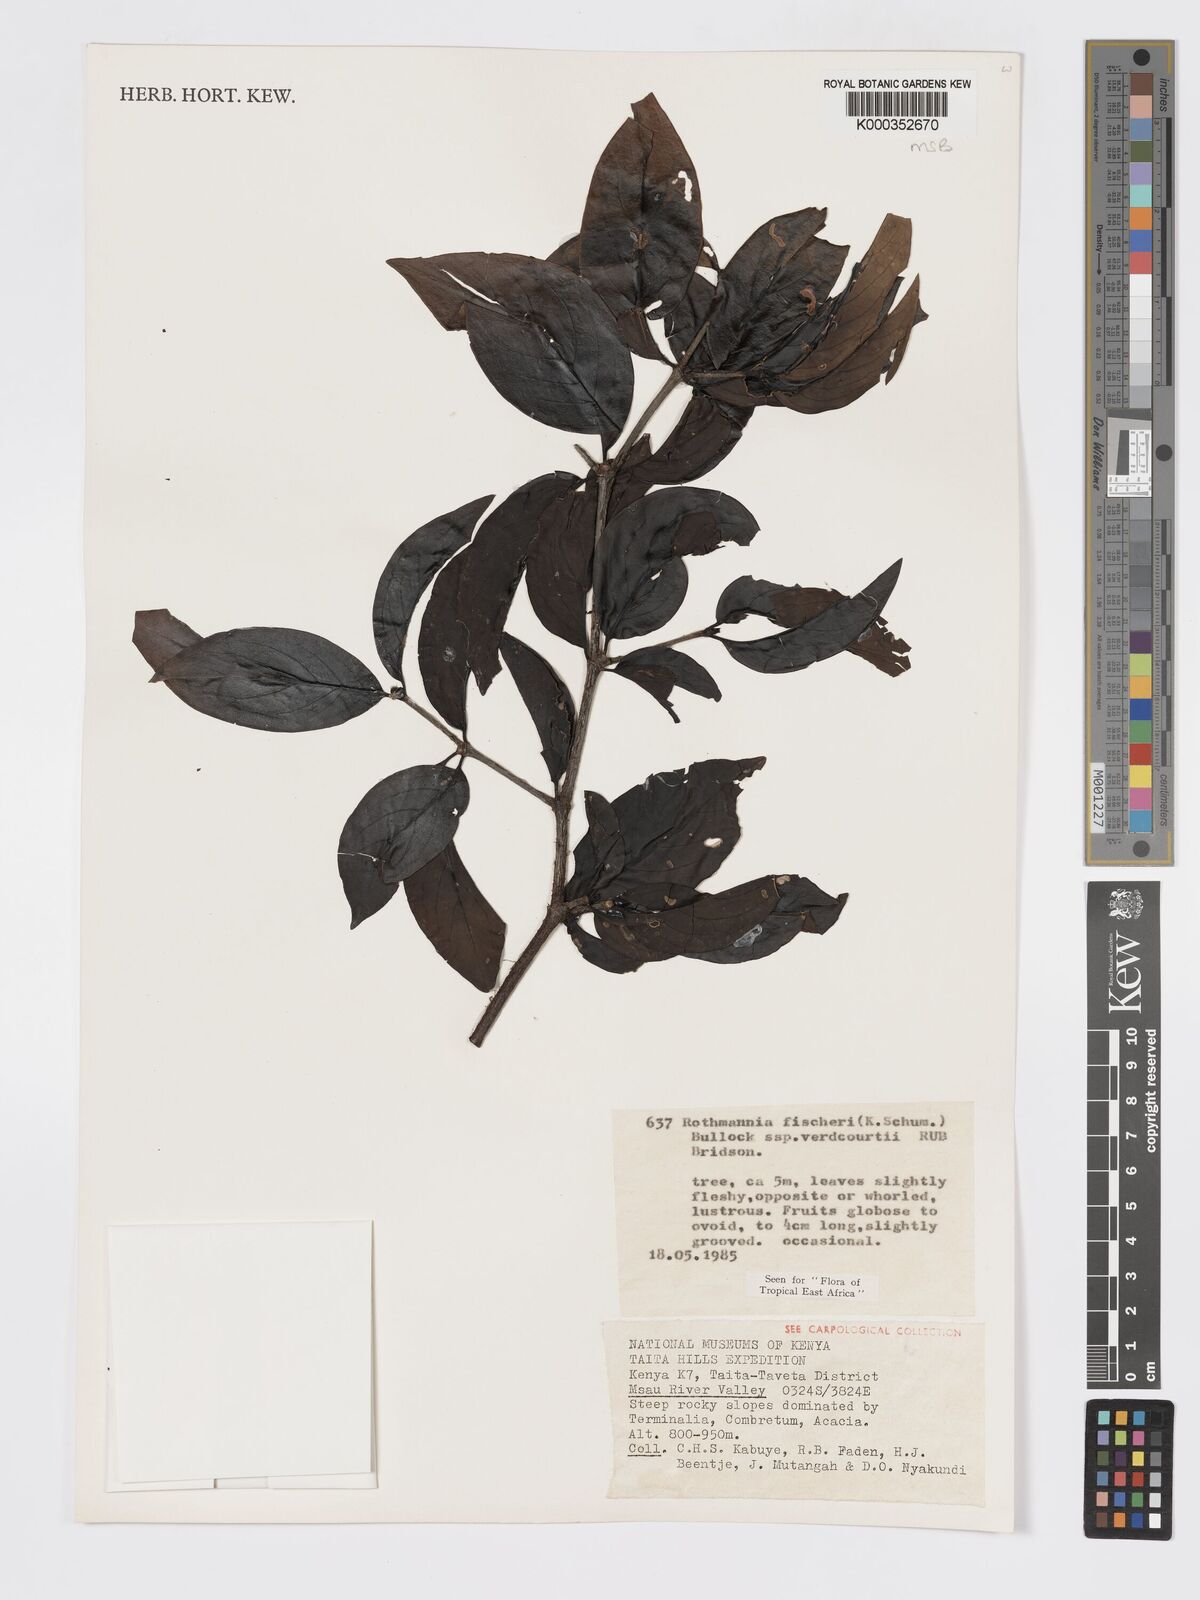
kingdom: Plantae
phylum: Tracheophyta
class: Magnoliopsida
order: Gentianales
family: Rubiaceae
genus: Rothmannia
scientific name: Rothmannia fischeri
